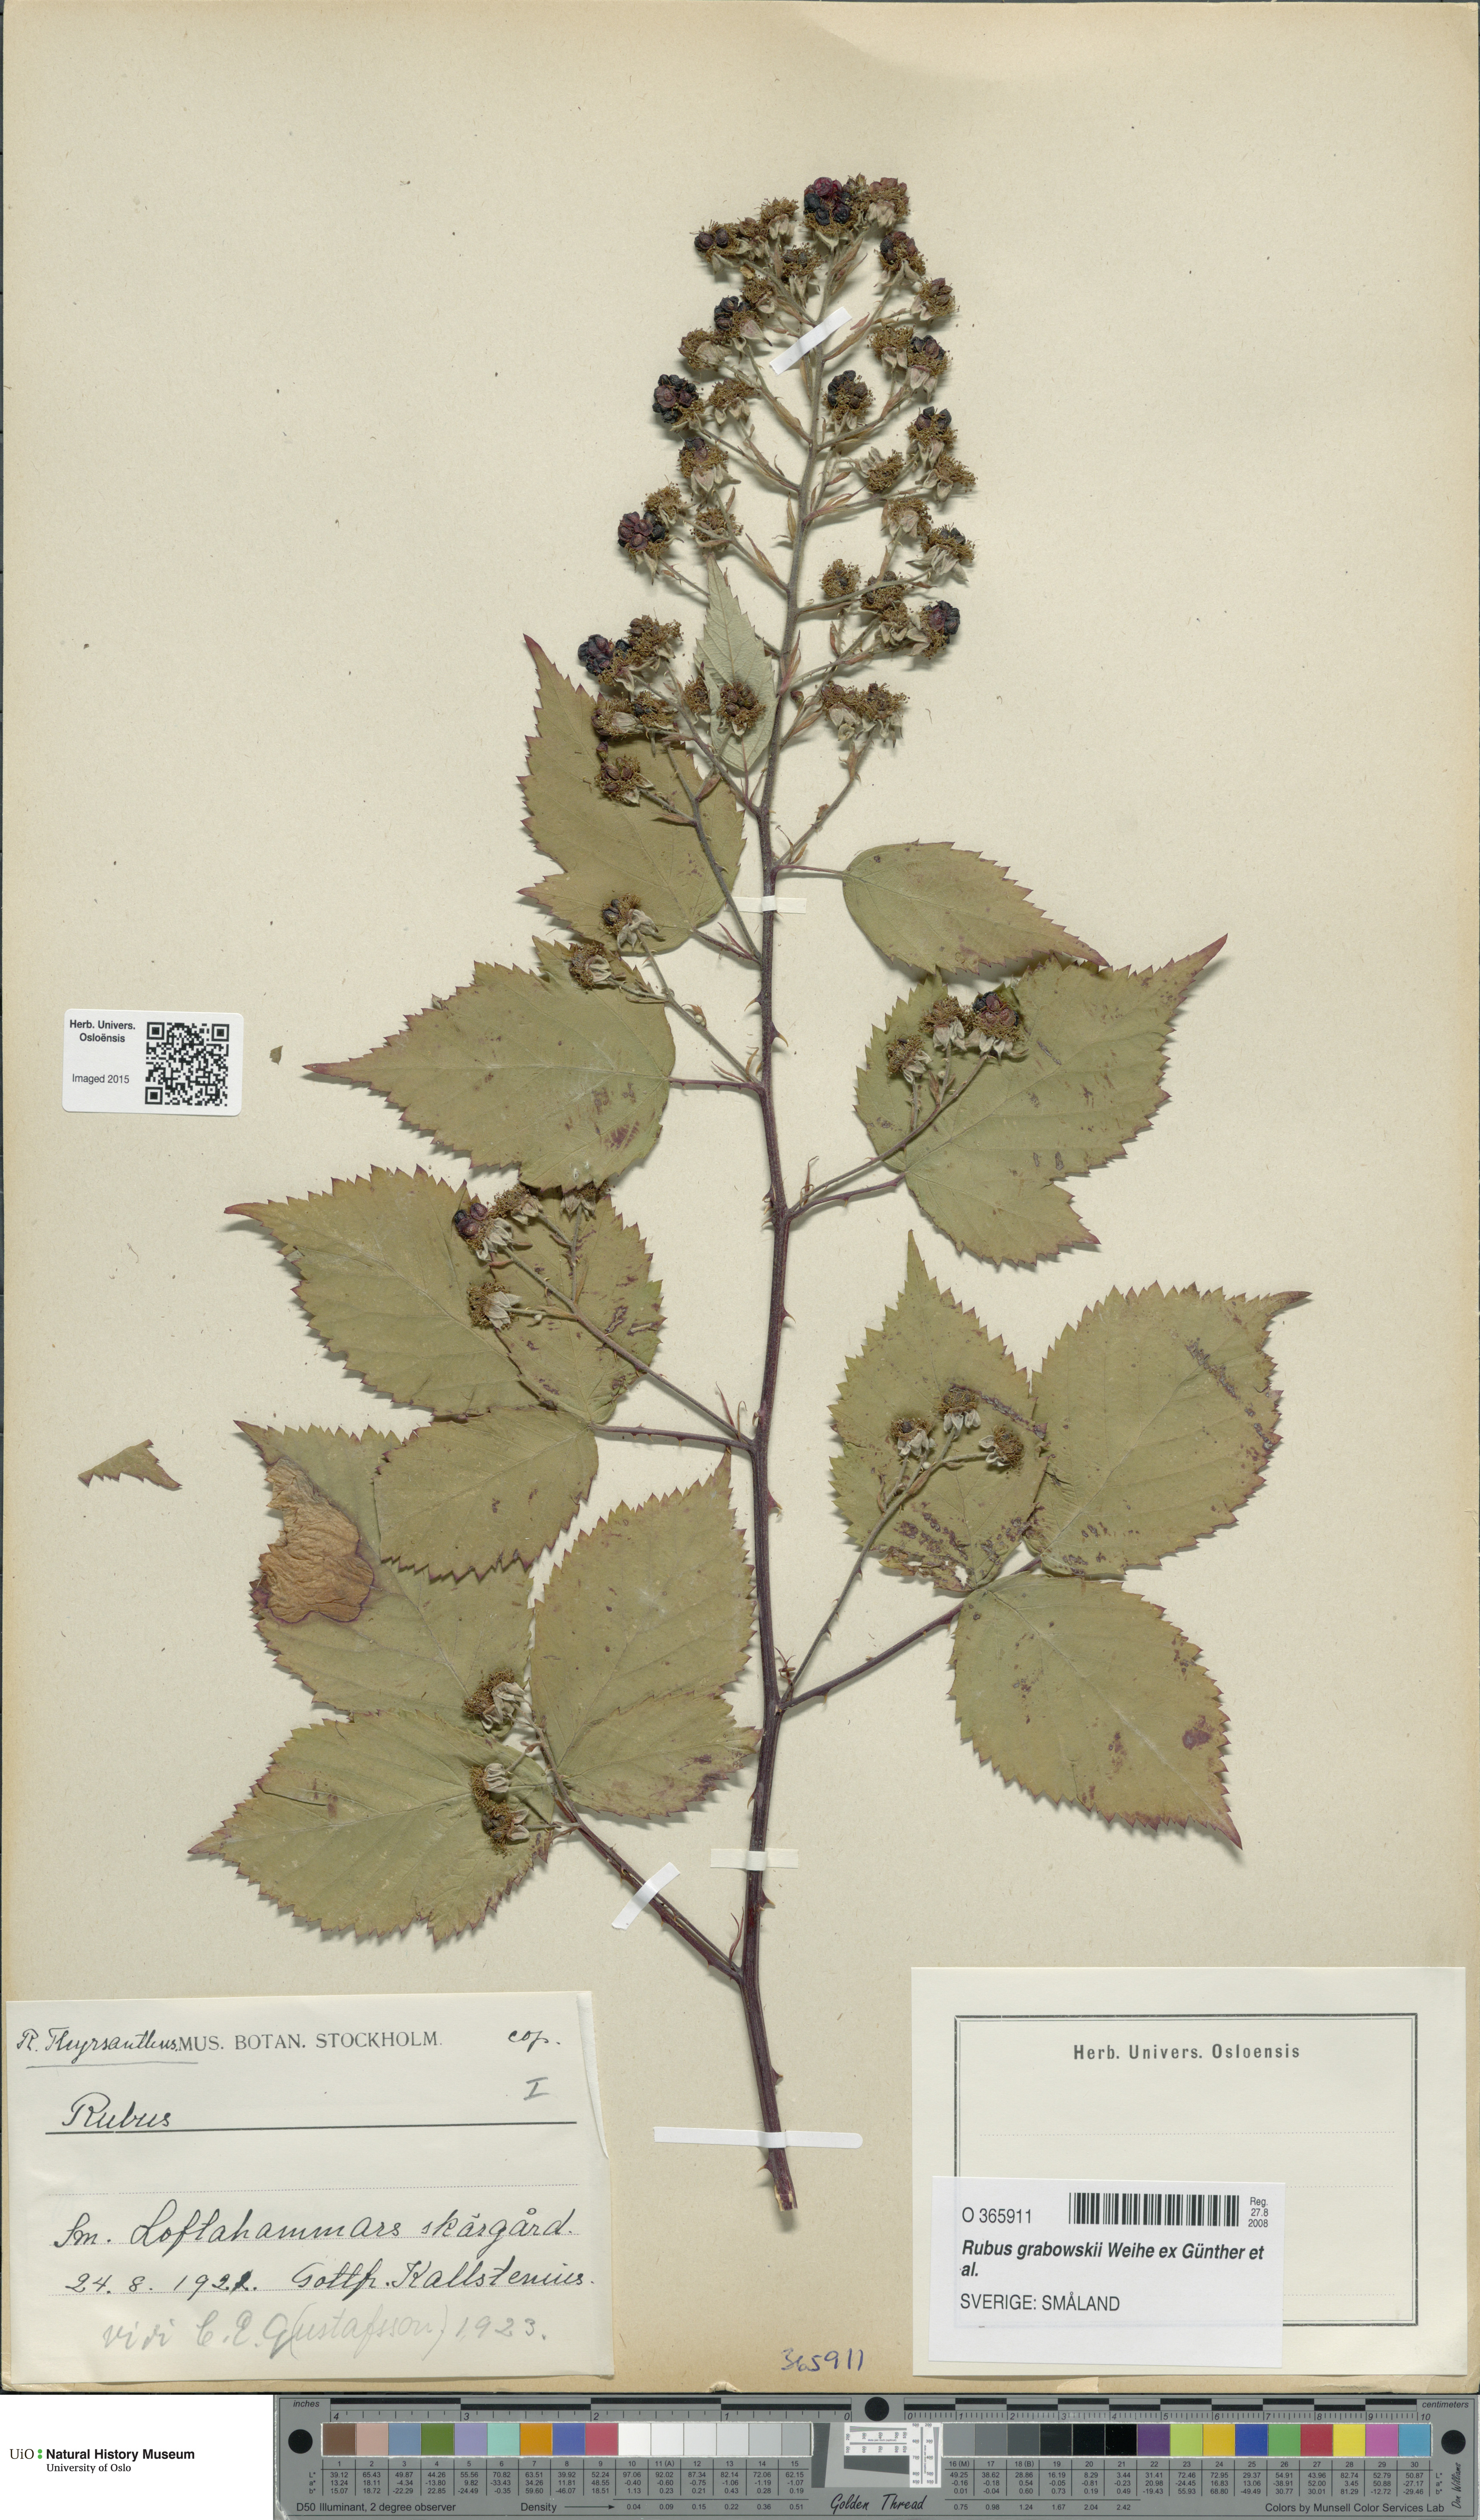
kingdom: Plantae
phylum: Tracheophyta
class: Magnoliopsida
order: Rosales
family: Rosaceae
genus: Rubus
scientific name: Rubus grabowskii
